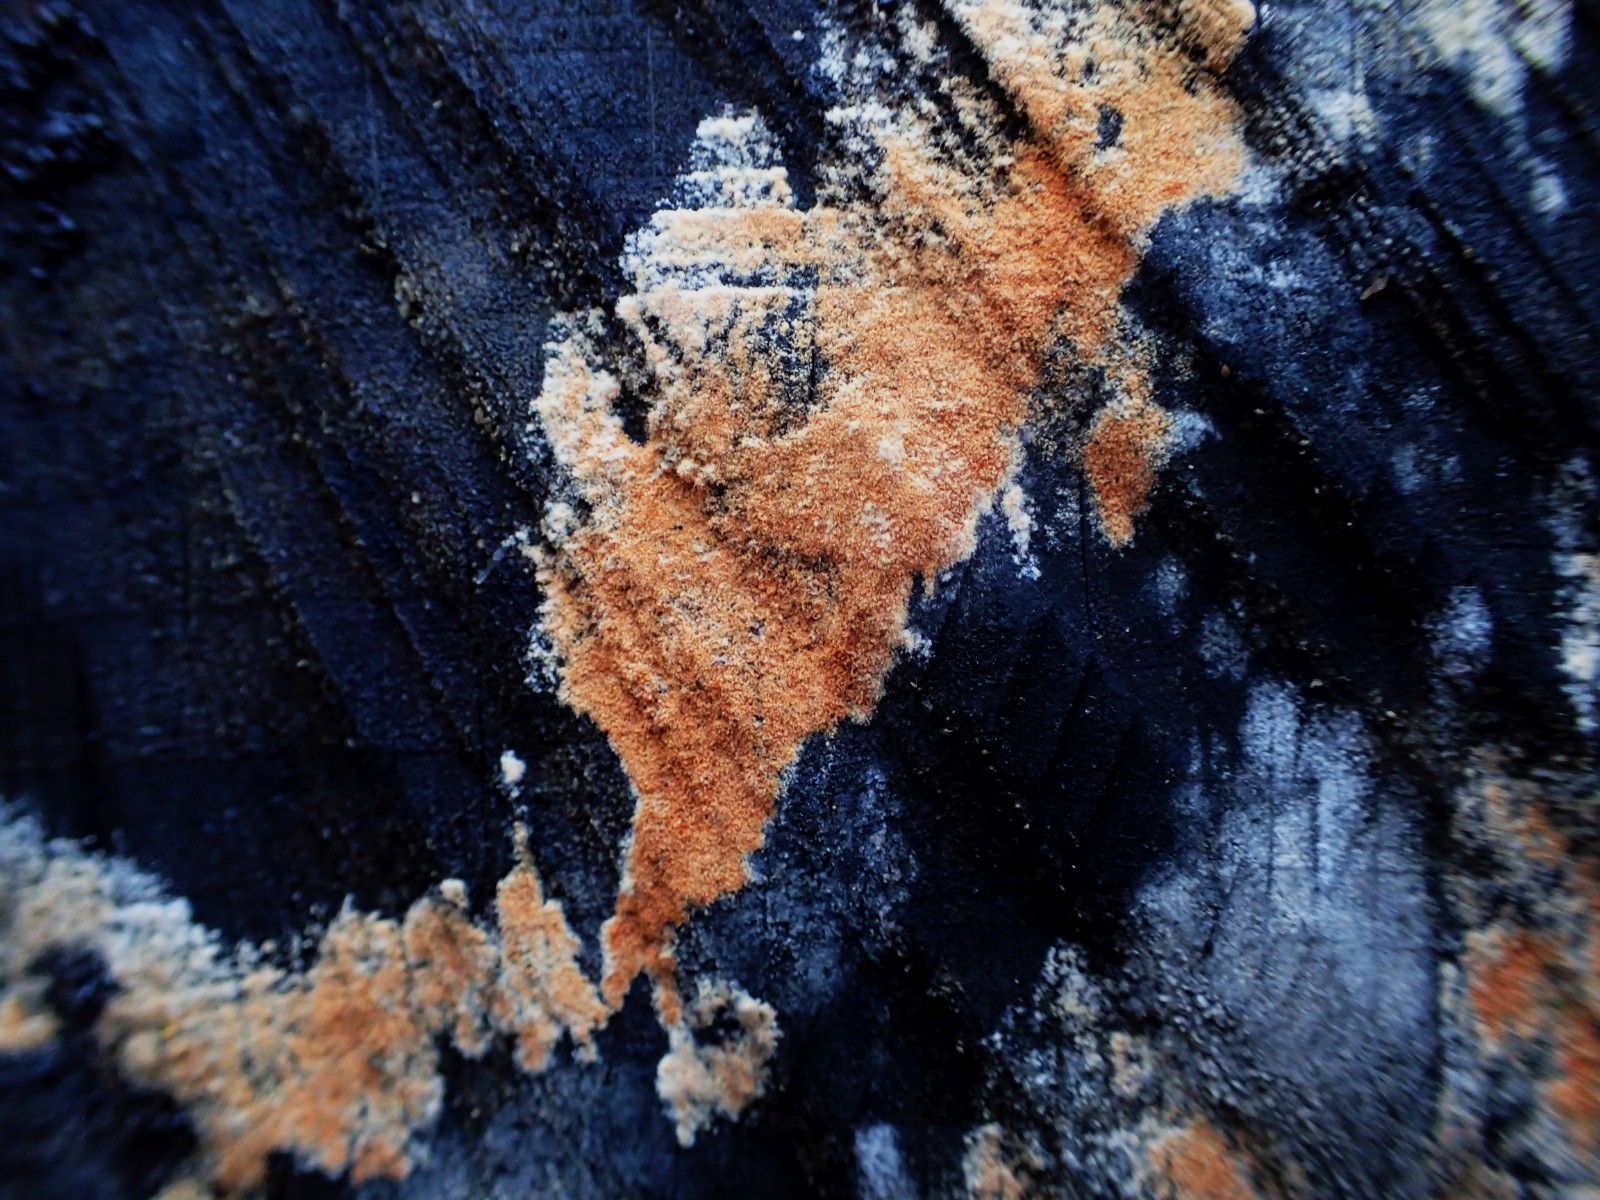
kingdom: Fungi
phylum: Basidiomycota
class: Agaricomycetes
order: Russulales
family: Peniophoraceae
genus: Peniophora
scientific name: Peniophora incarnata
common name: laksefarvet voksskind
